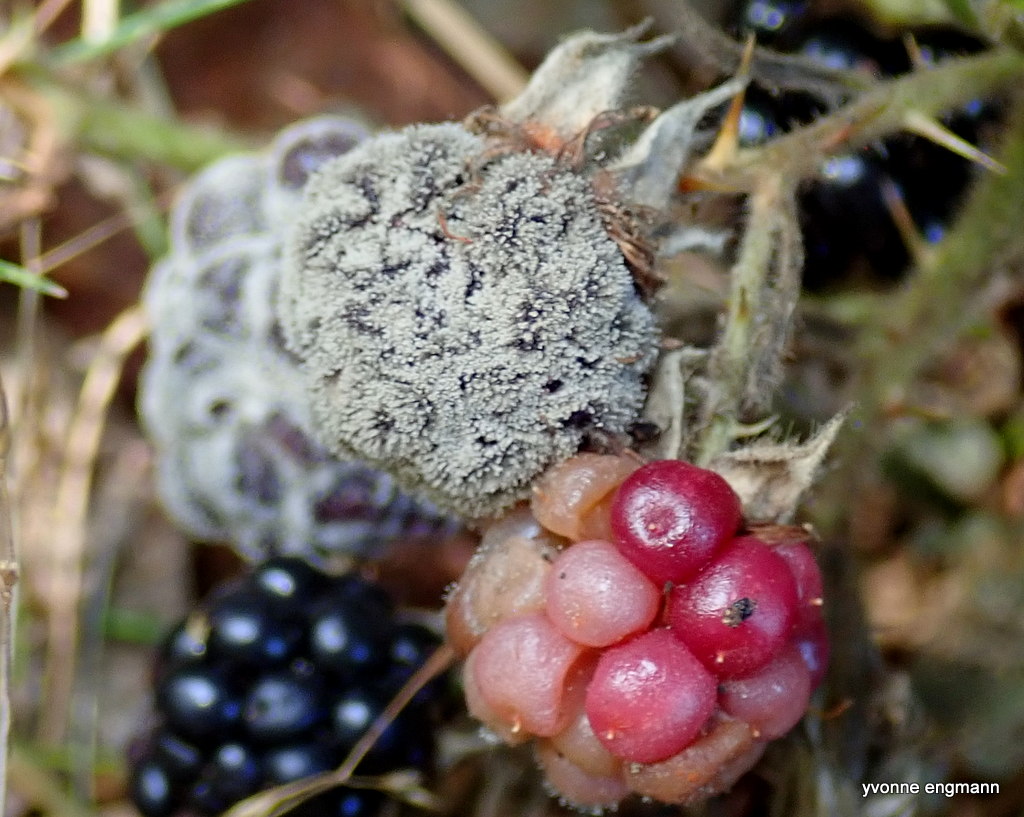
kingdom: Fungi
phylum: Ascomycota
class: Leotiomycetes
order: Helotiales
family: Sclerotiniaceae
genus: Botrytis
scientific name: Botrytis cinerea
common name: Grey mould
